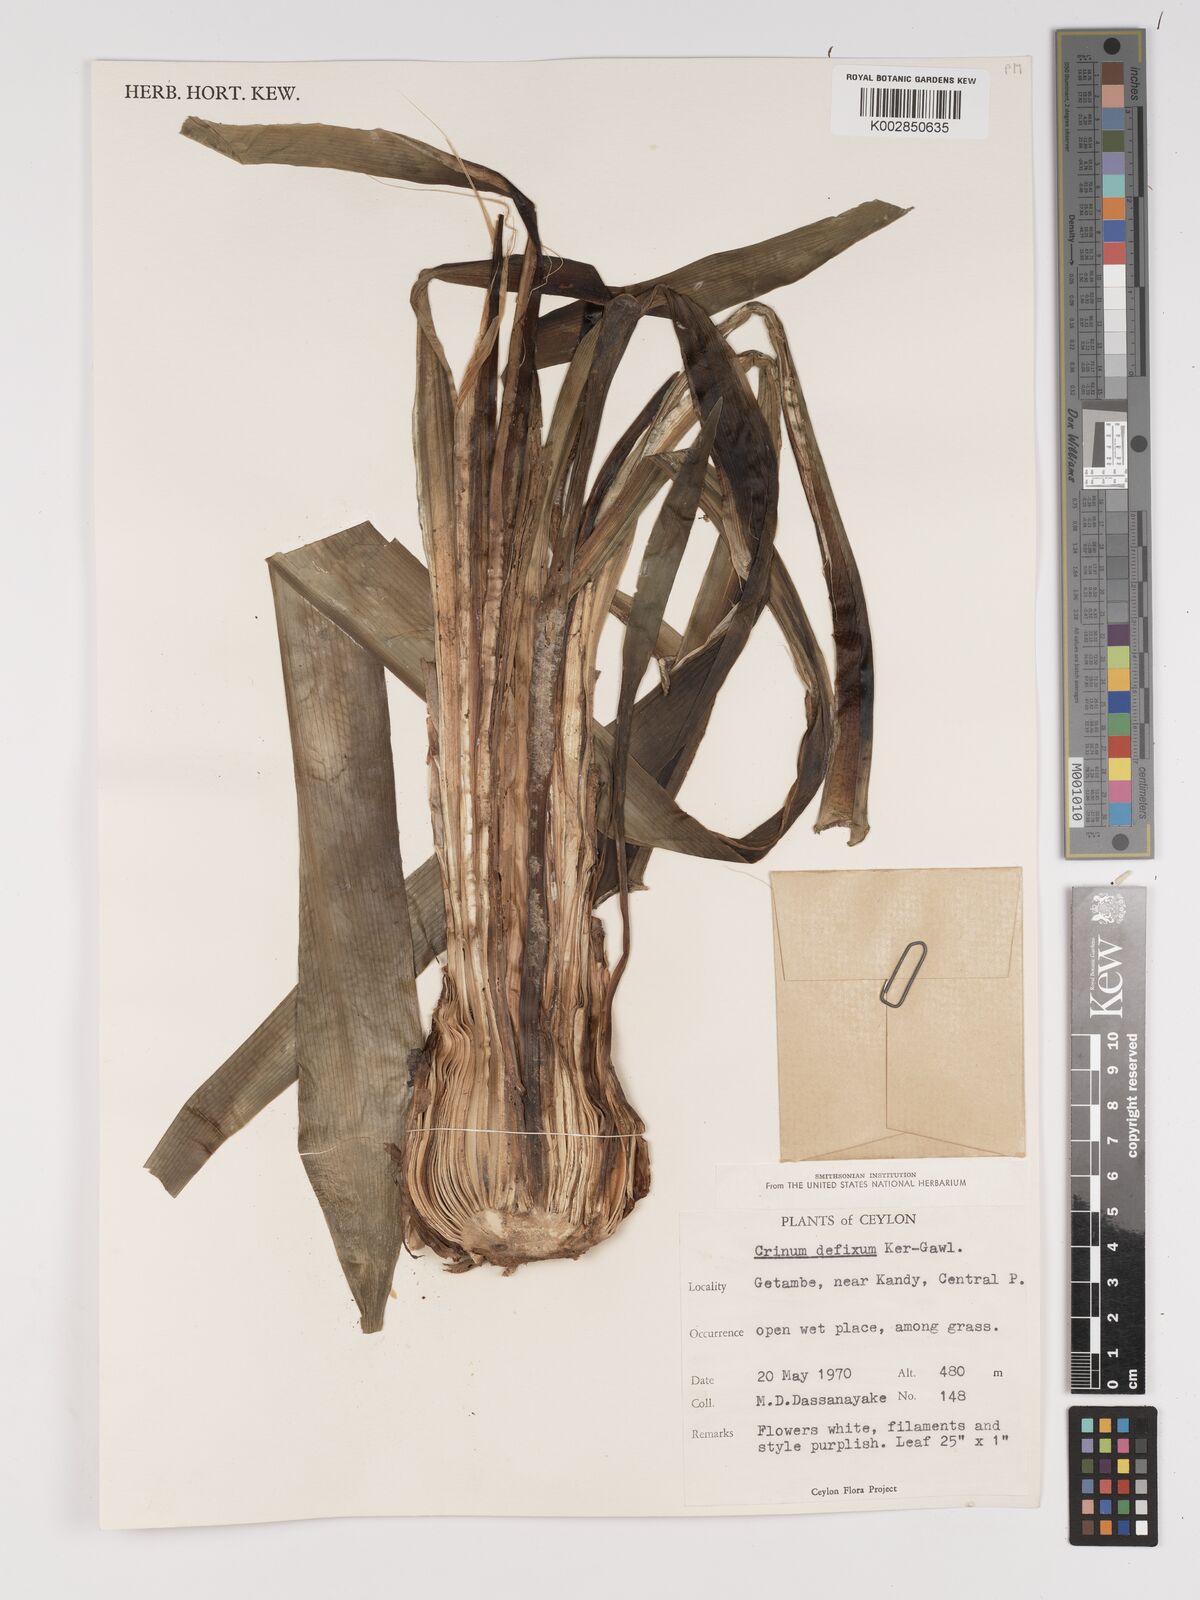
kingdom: Plantae
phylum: Tracheophyta
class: Liliopsida
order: Asparagales
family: Amaryllidaceae
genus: Crinum
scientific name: Crinum defixum
